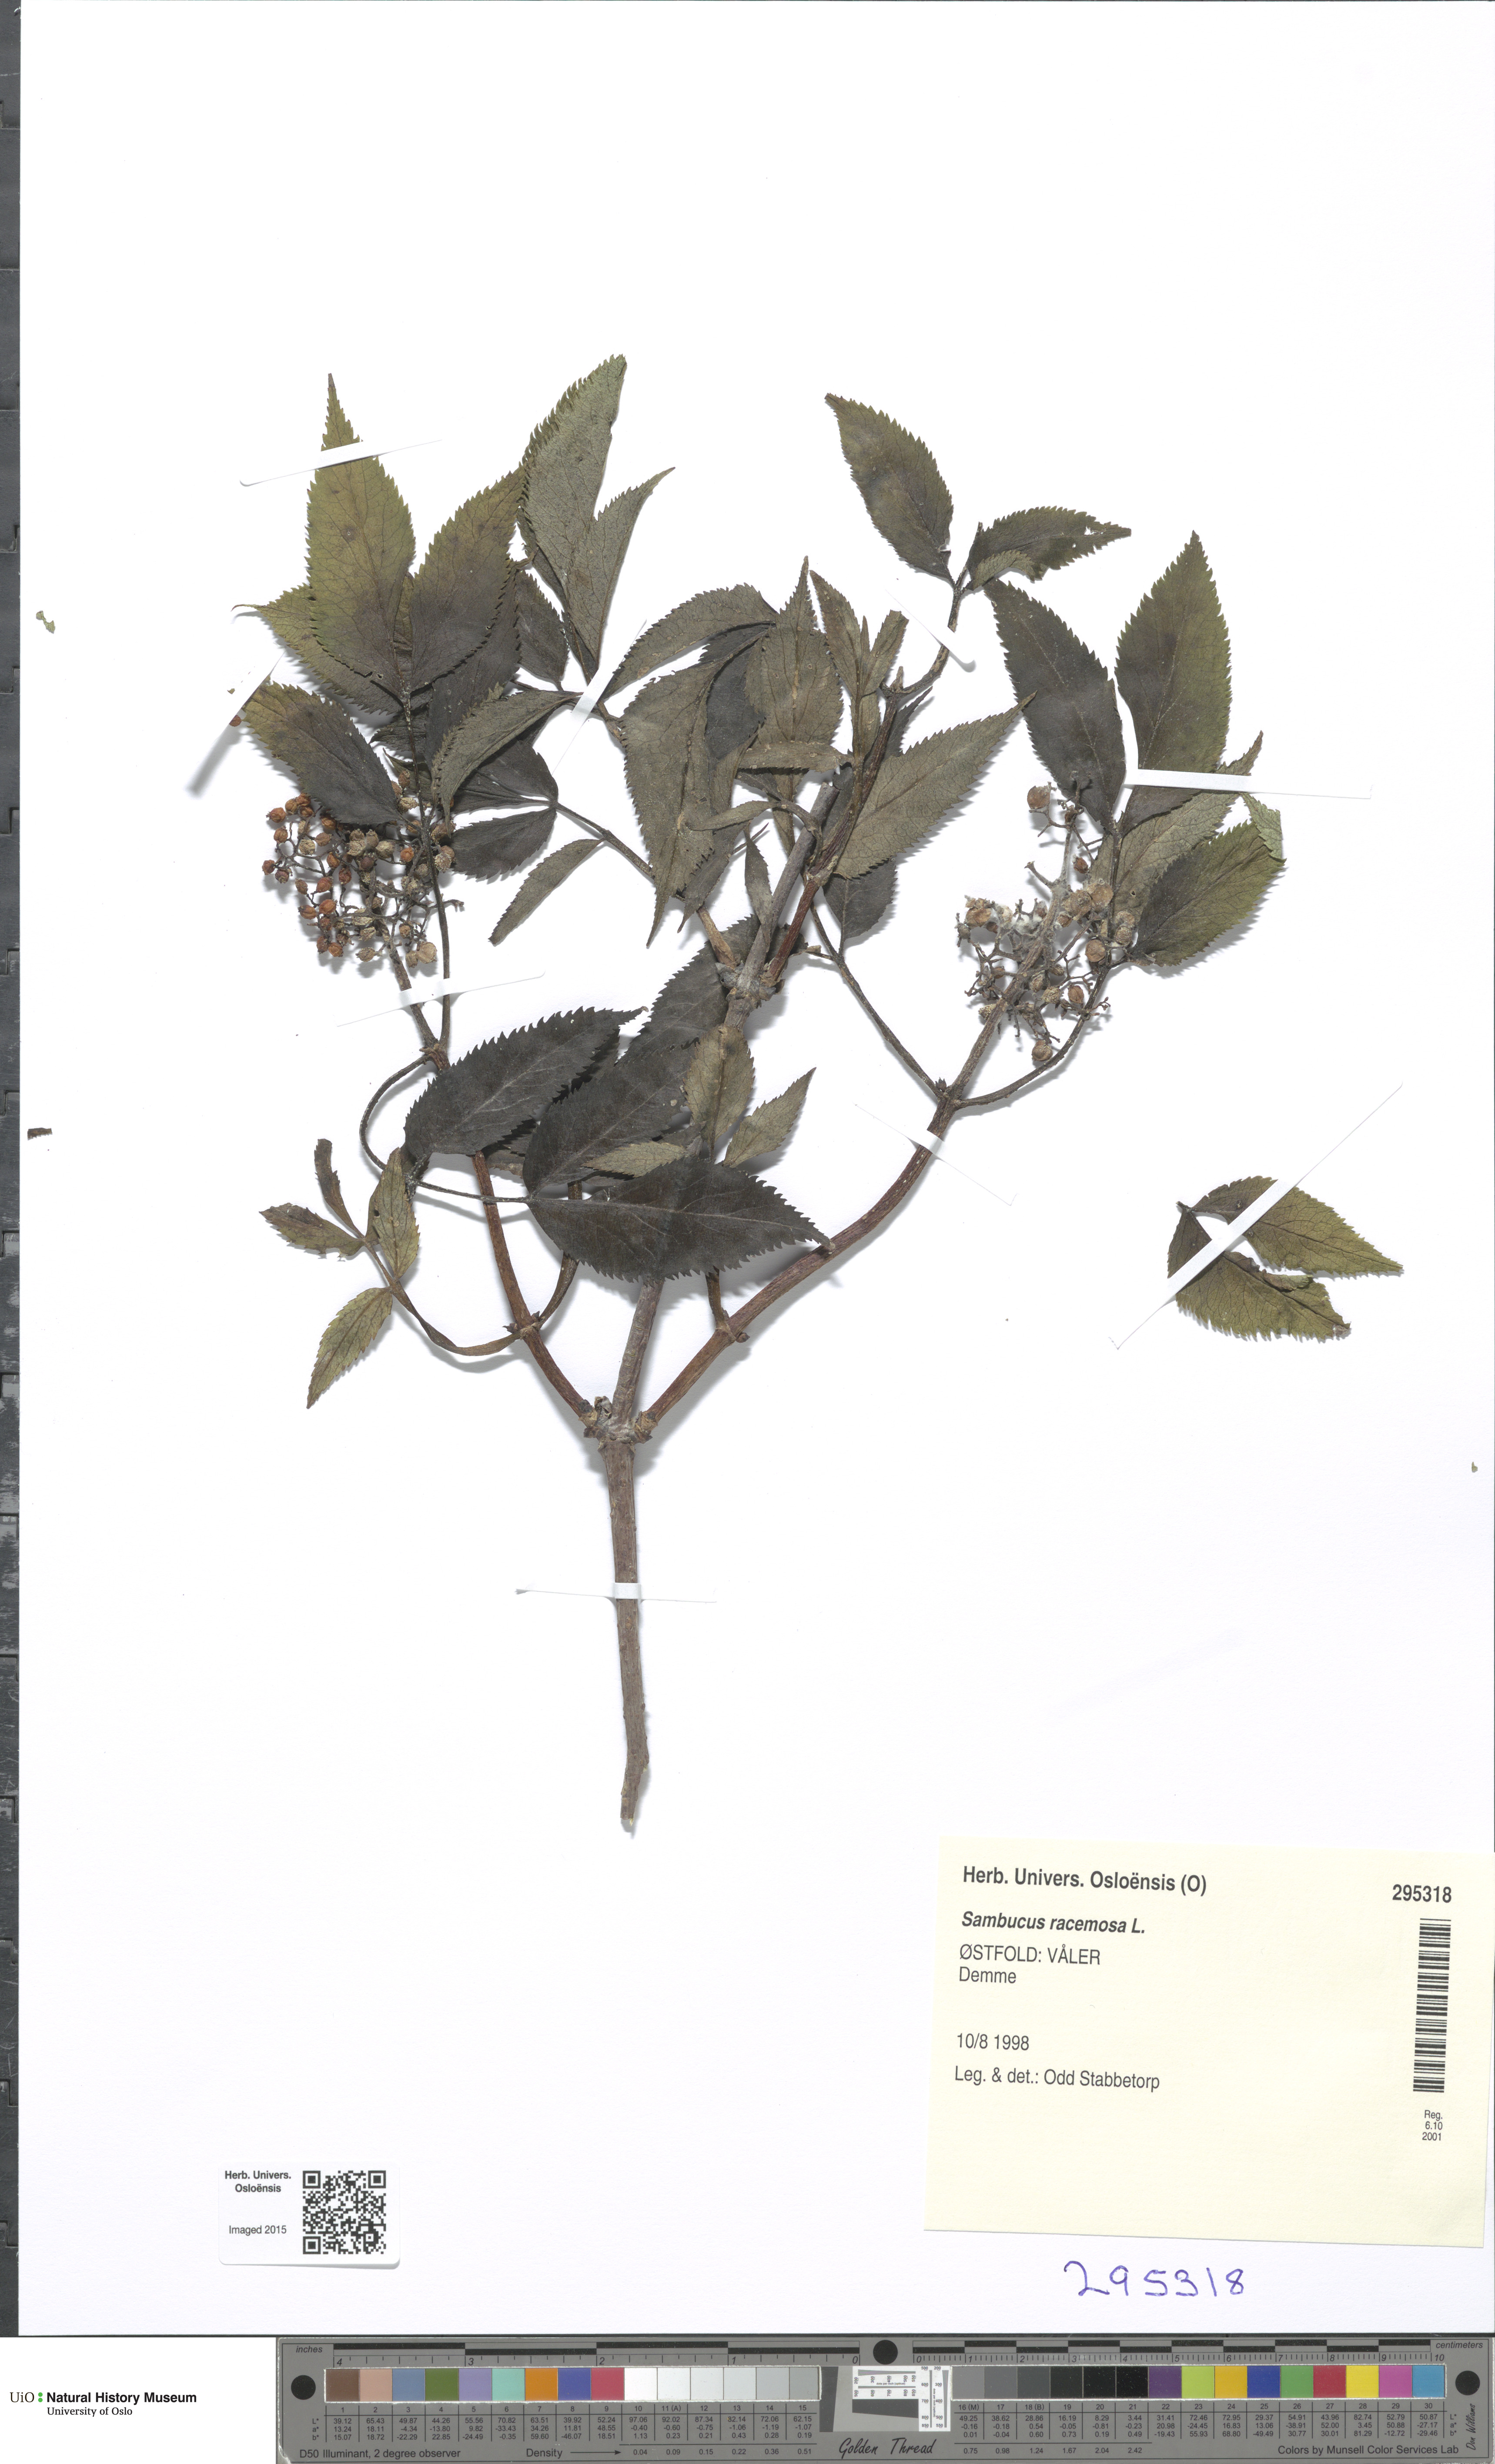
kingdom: Plantae
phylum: Tracheophyta
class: Magnoliopsida
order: Dipsacales
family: Viburnaceae
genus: Sambucus
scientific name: Sambucus racemosa
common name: Red-berried elder
